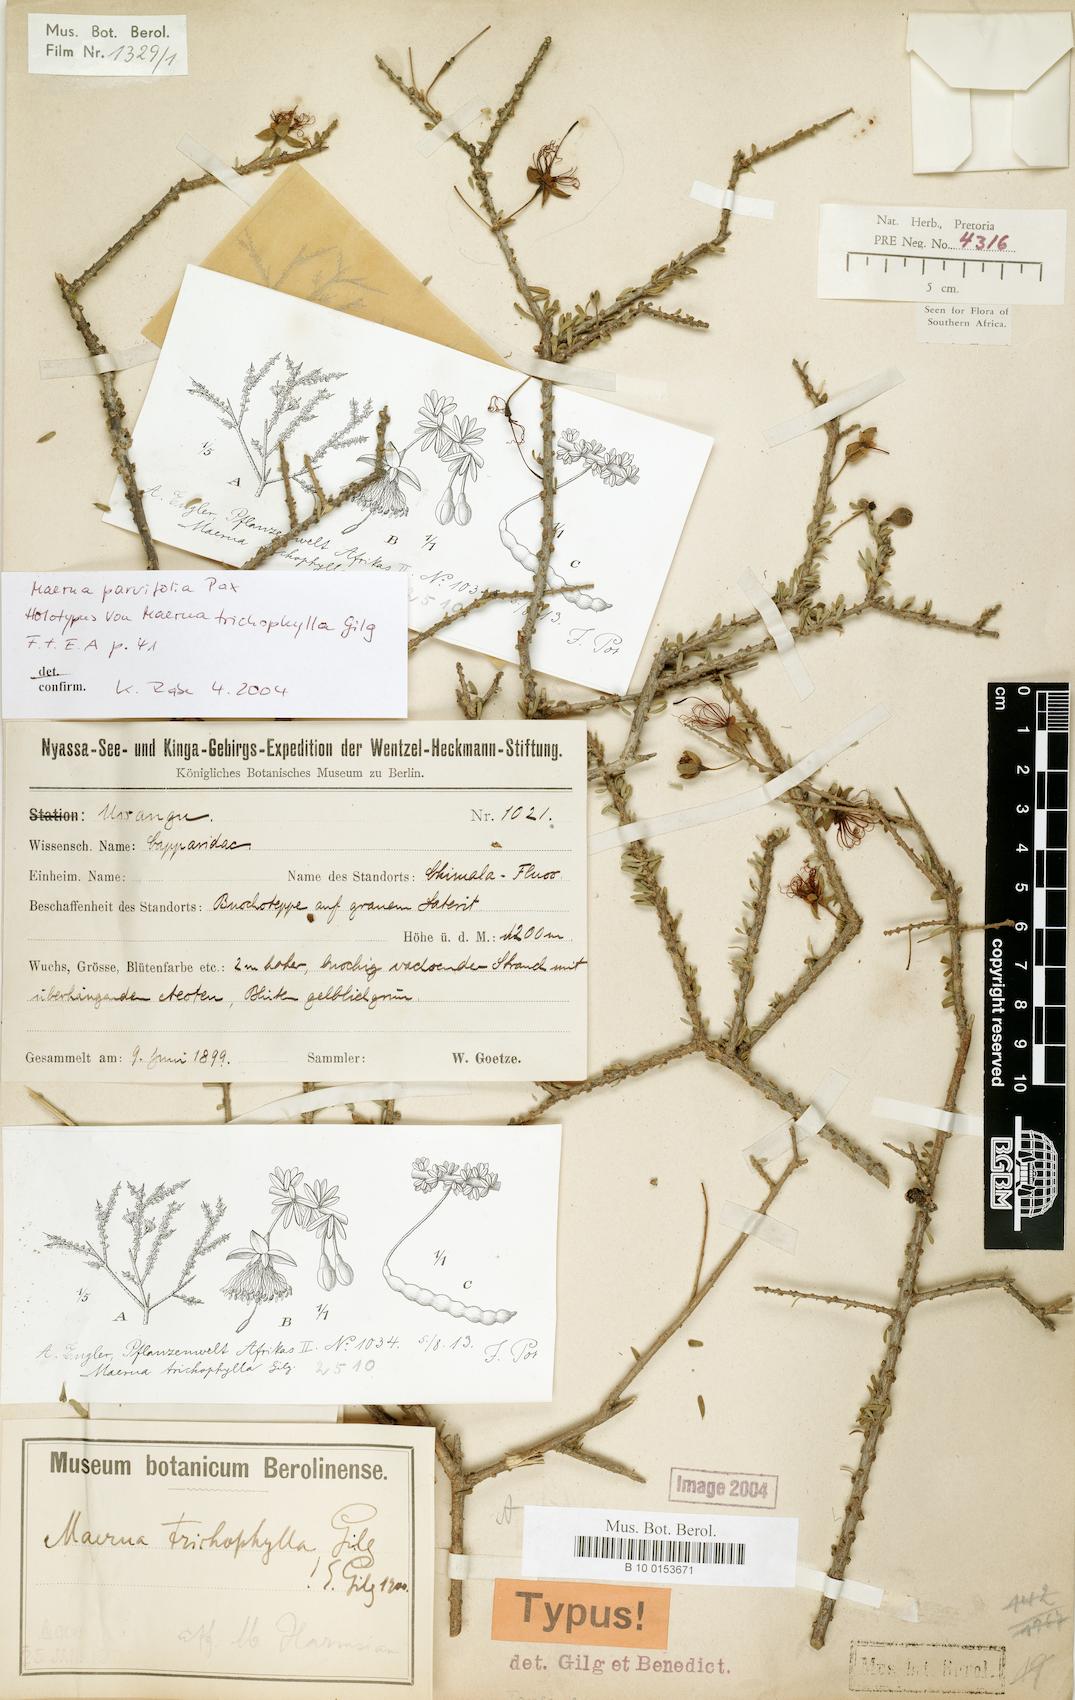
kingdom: Plantae
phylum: Tracheophyta
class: Magnoliopsida
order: Brassicales
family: Capparaceae
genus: Maerua
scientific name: Maerua parvifolia
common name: Dwarf bush-cherry
